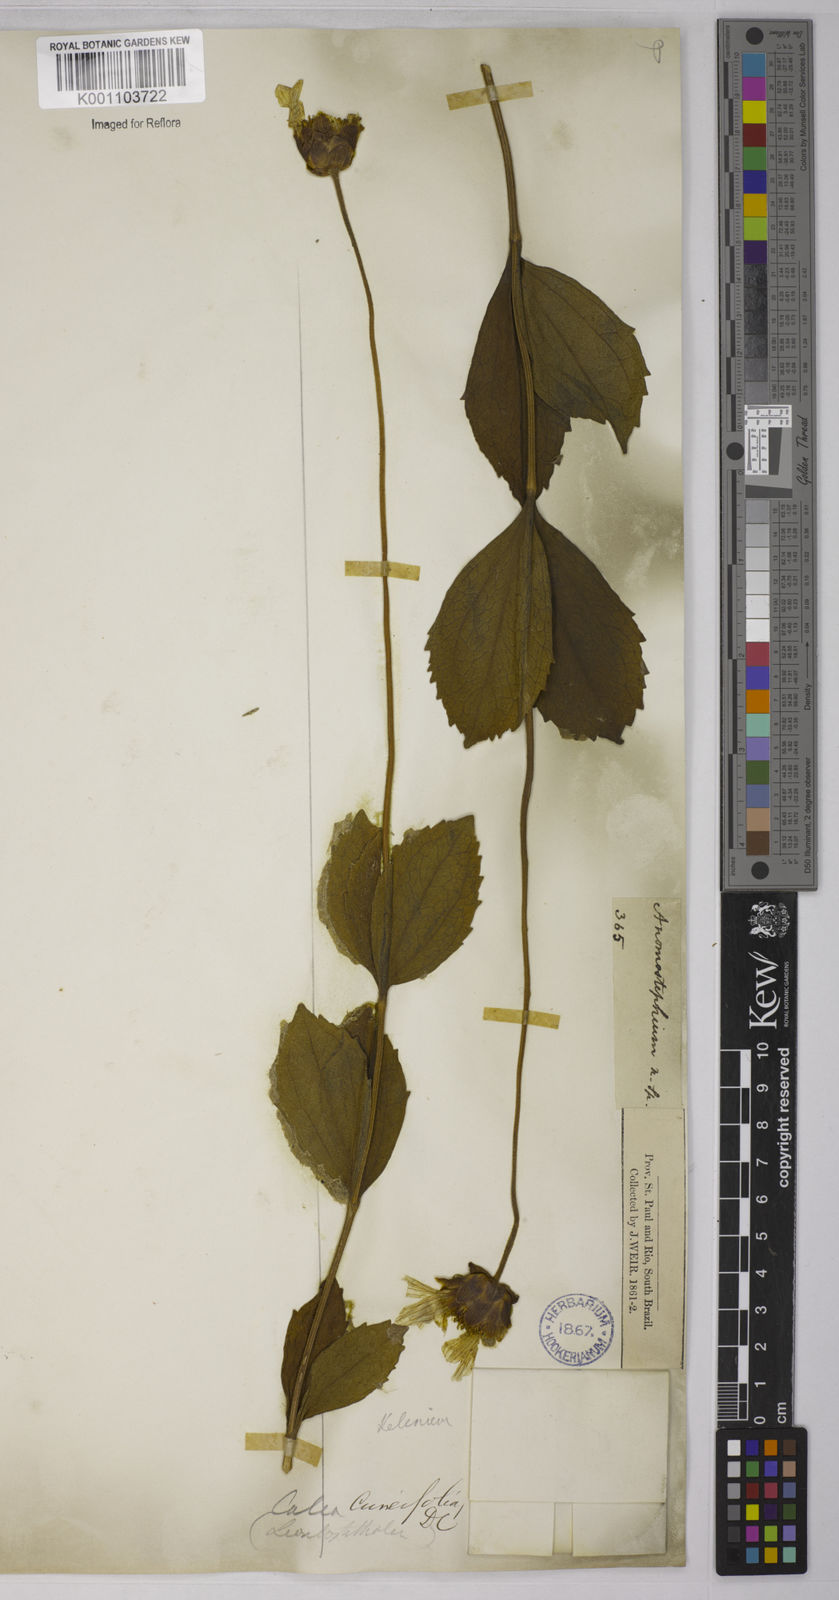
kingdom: Plantae
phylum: Tracheophyta
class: Magnoliopsida
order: Asterales
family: Asteraceae
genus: Calea
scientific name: Calea cuneifolia
